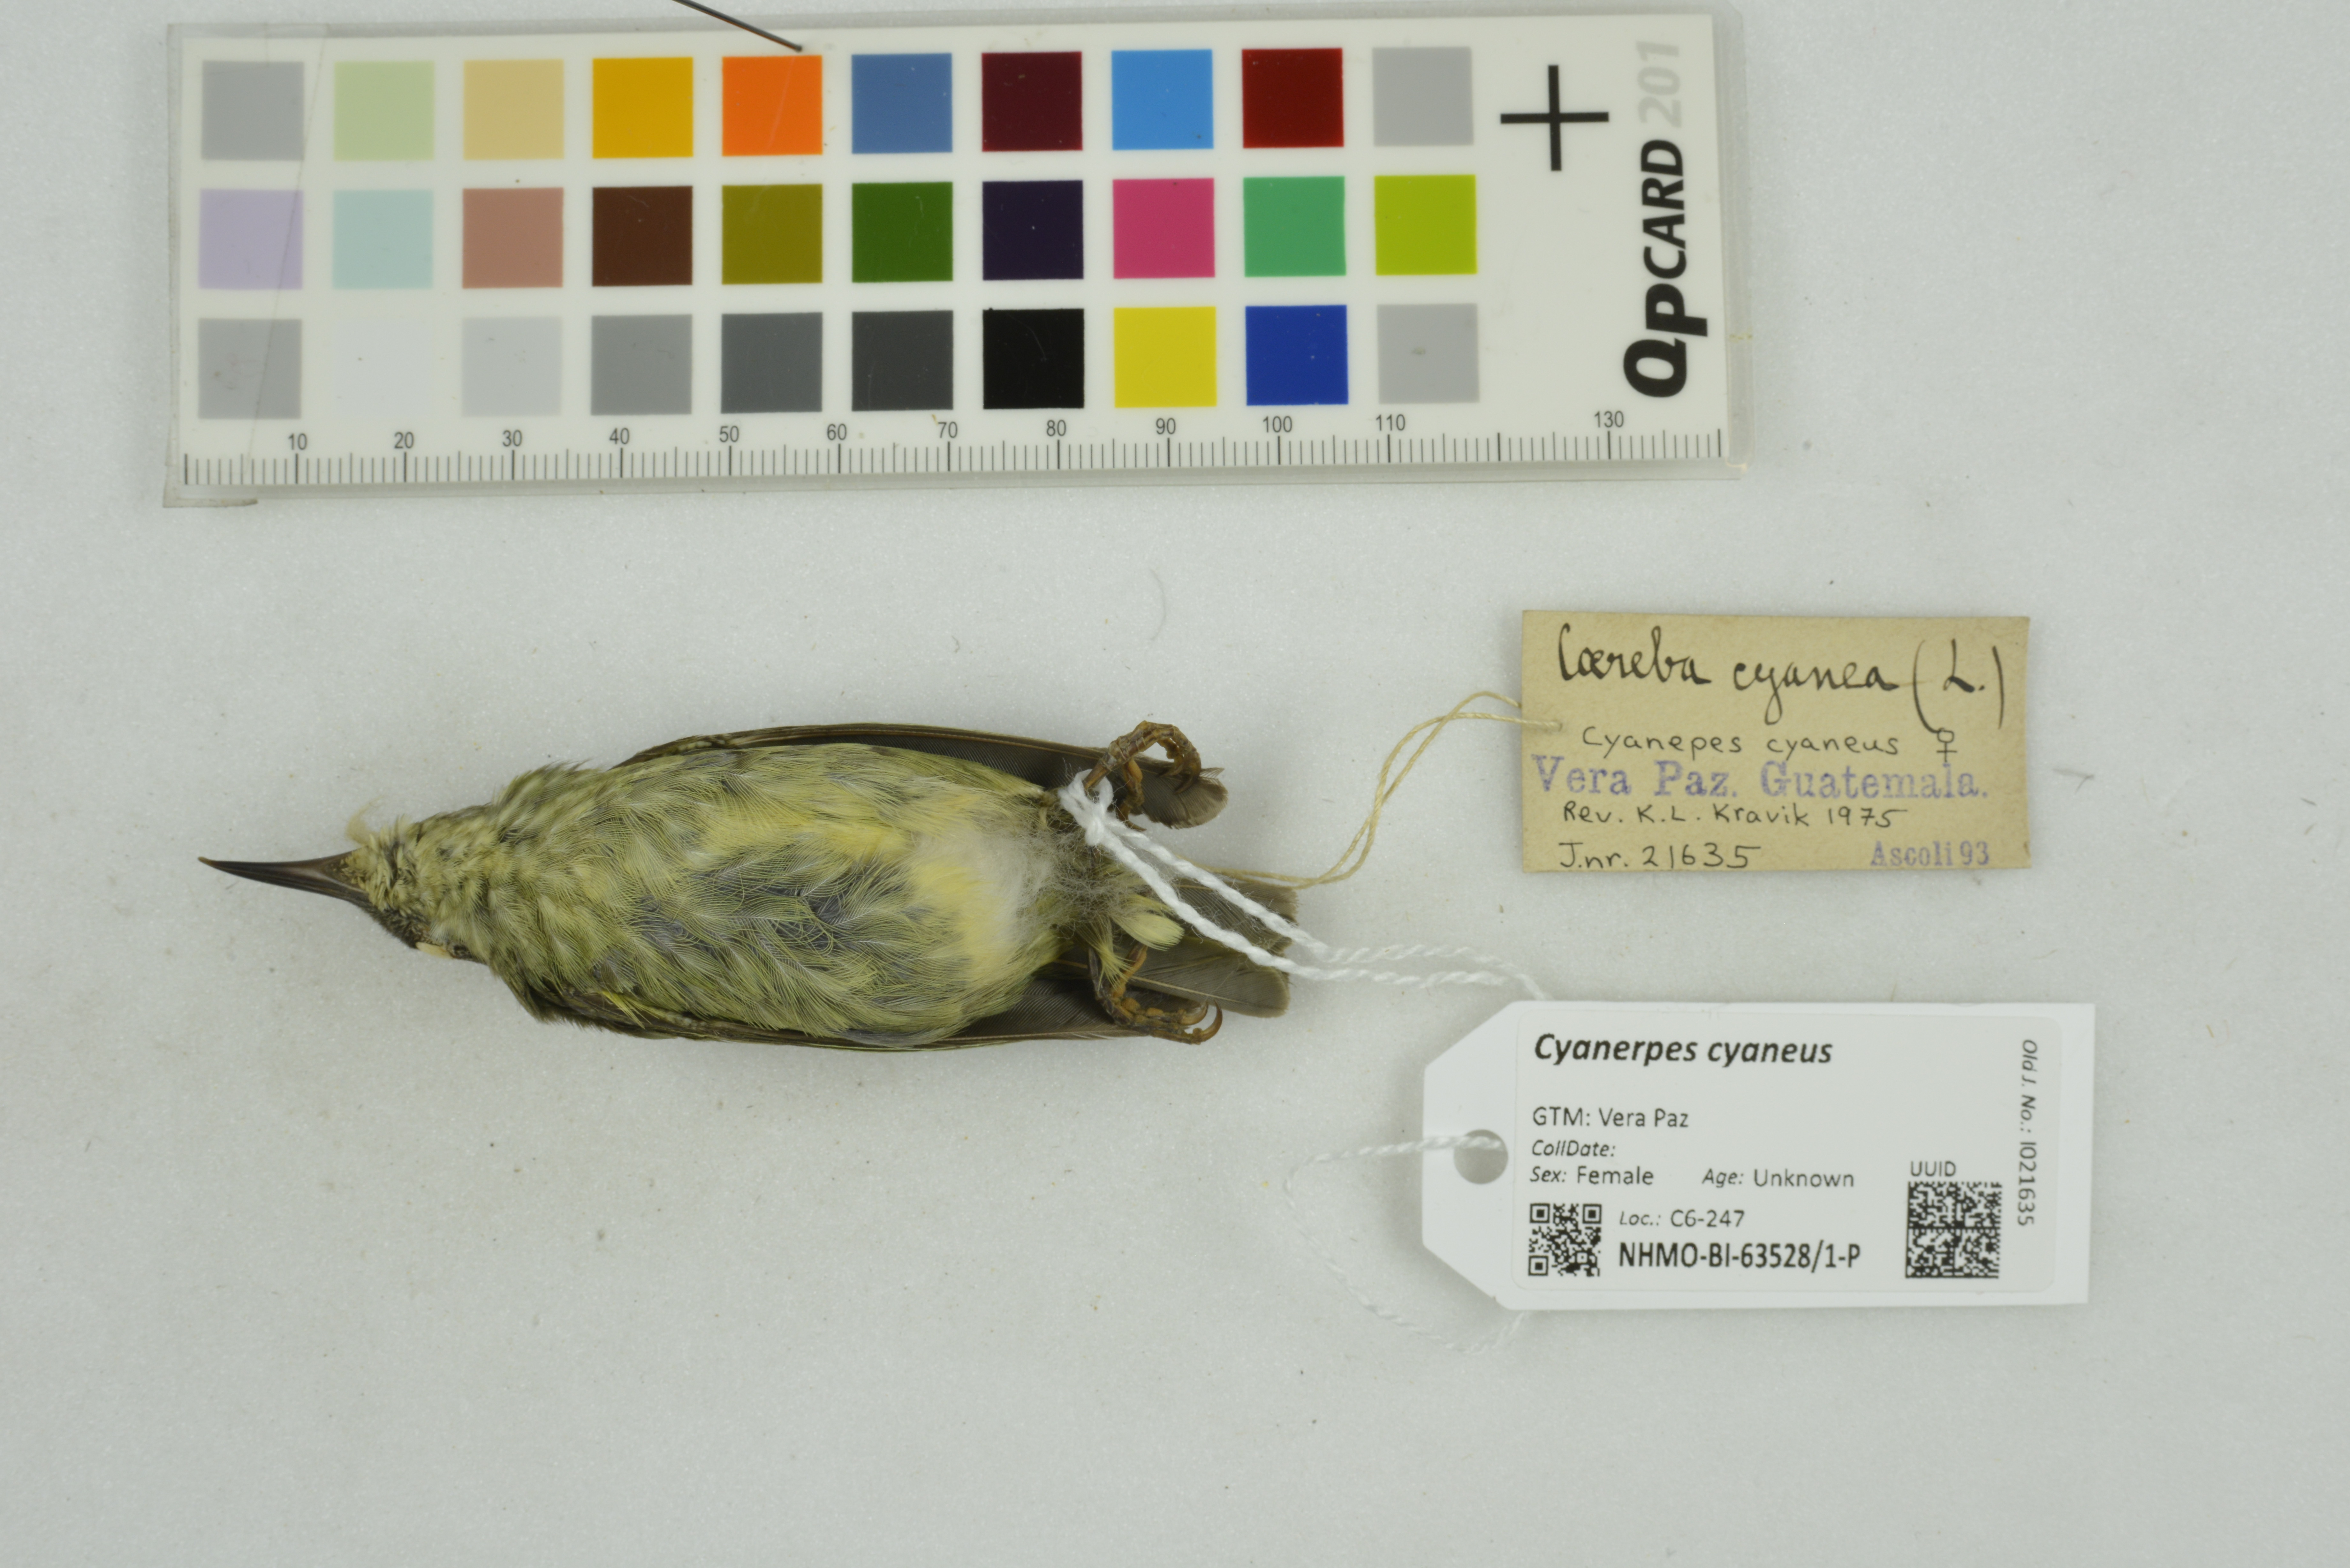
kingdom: Animalia
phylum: Chordata
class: Aves
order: Passeriformes
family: Thraupidae
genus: Cyanerpes
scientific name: Cyanerpes cyaneus
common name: Red-legged honeycreeper
